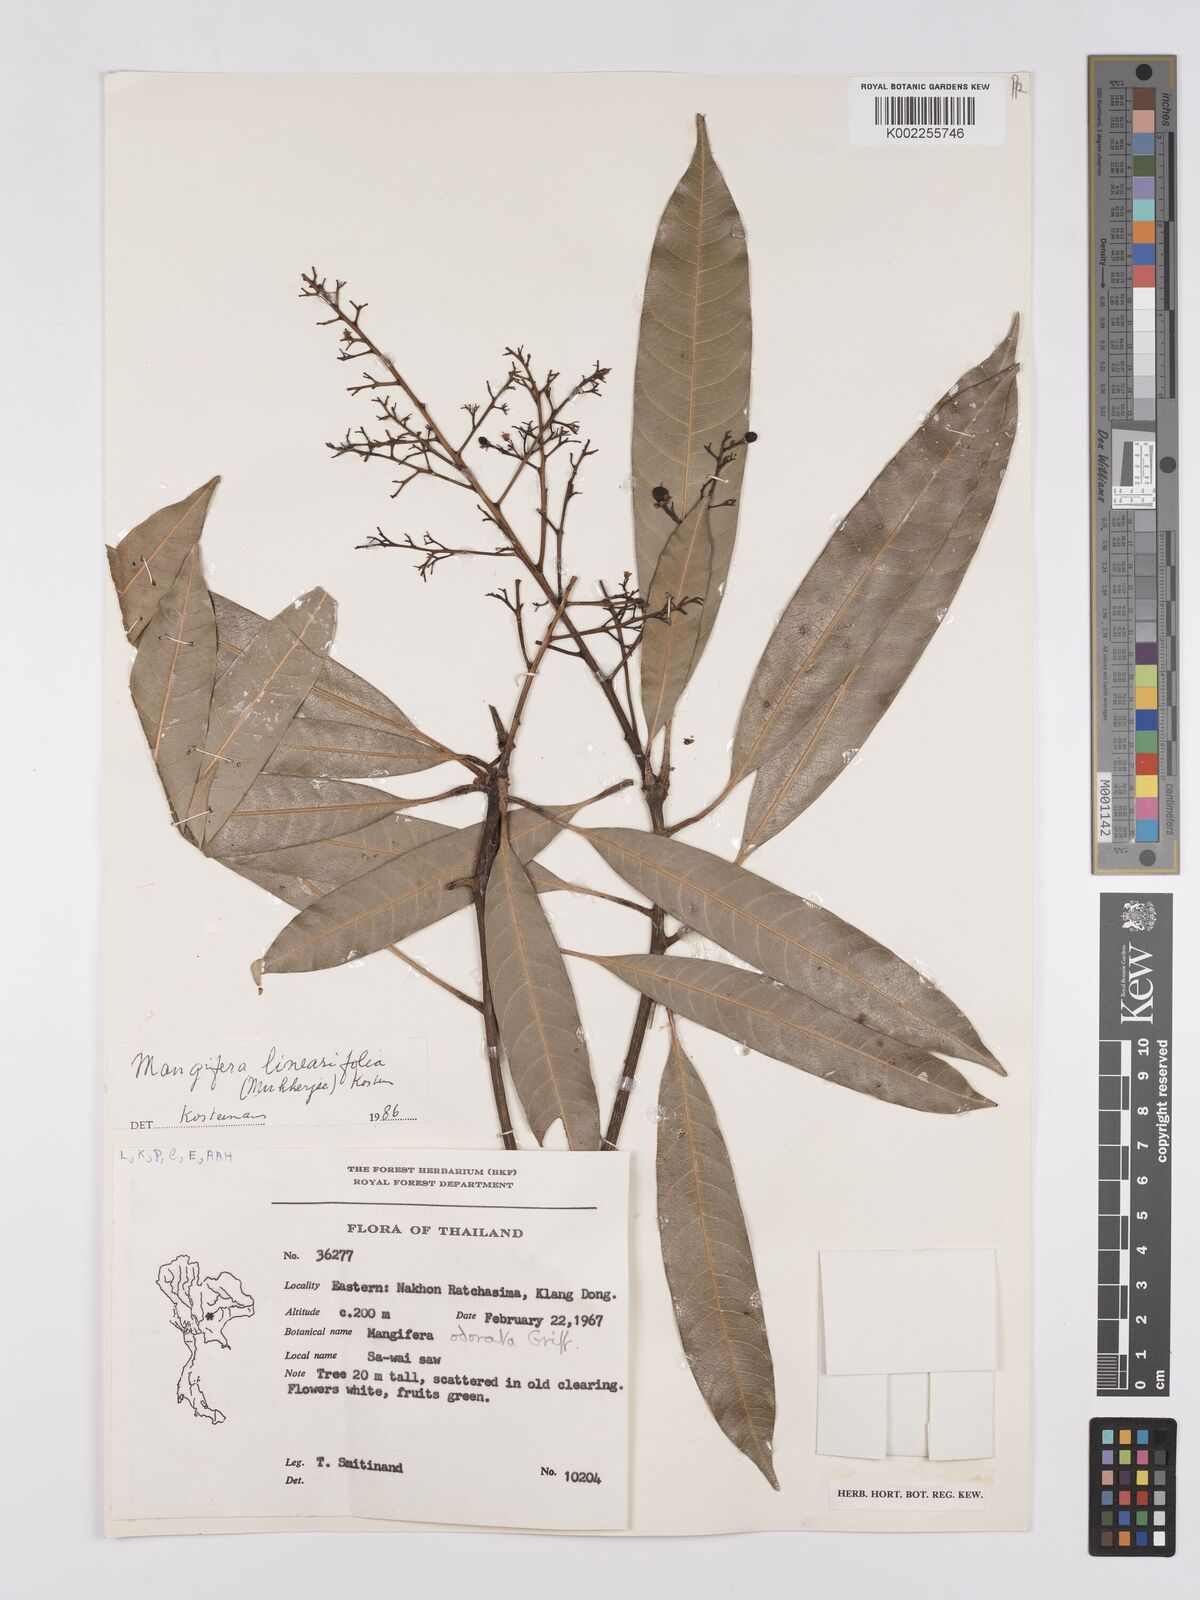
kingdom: Plantae
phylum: Tracheophyta
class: Magnoliopsida
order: Sapindales
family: Anacardiaceae
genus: Mangifera
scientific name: Mangifera odorata
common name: Saipan mango
